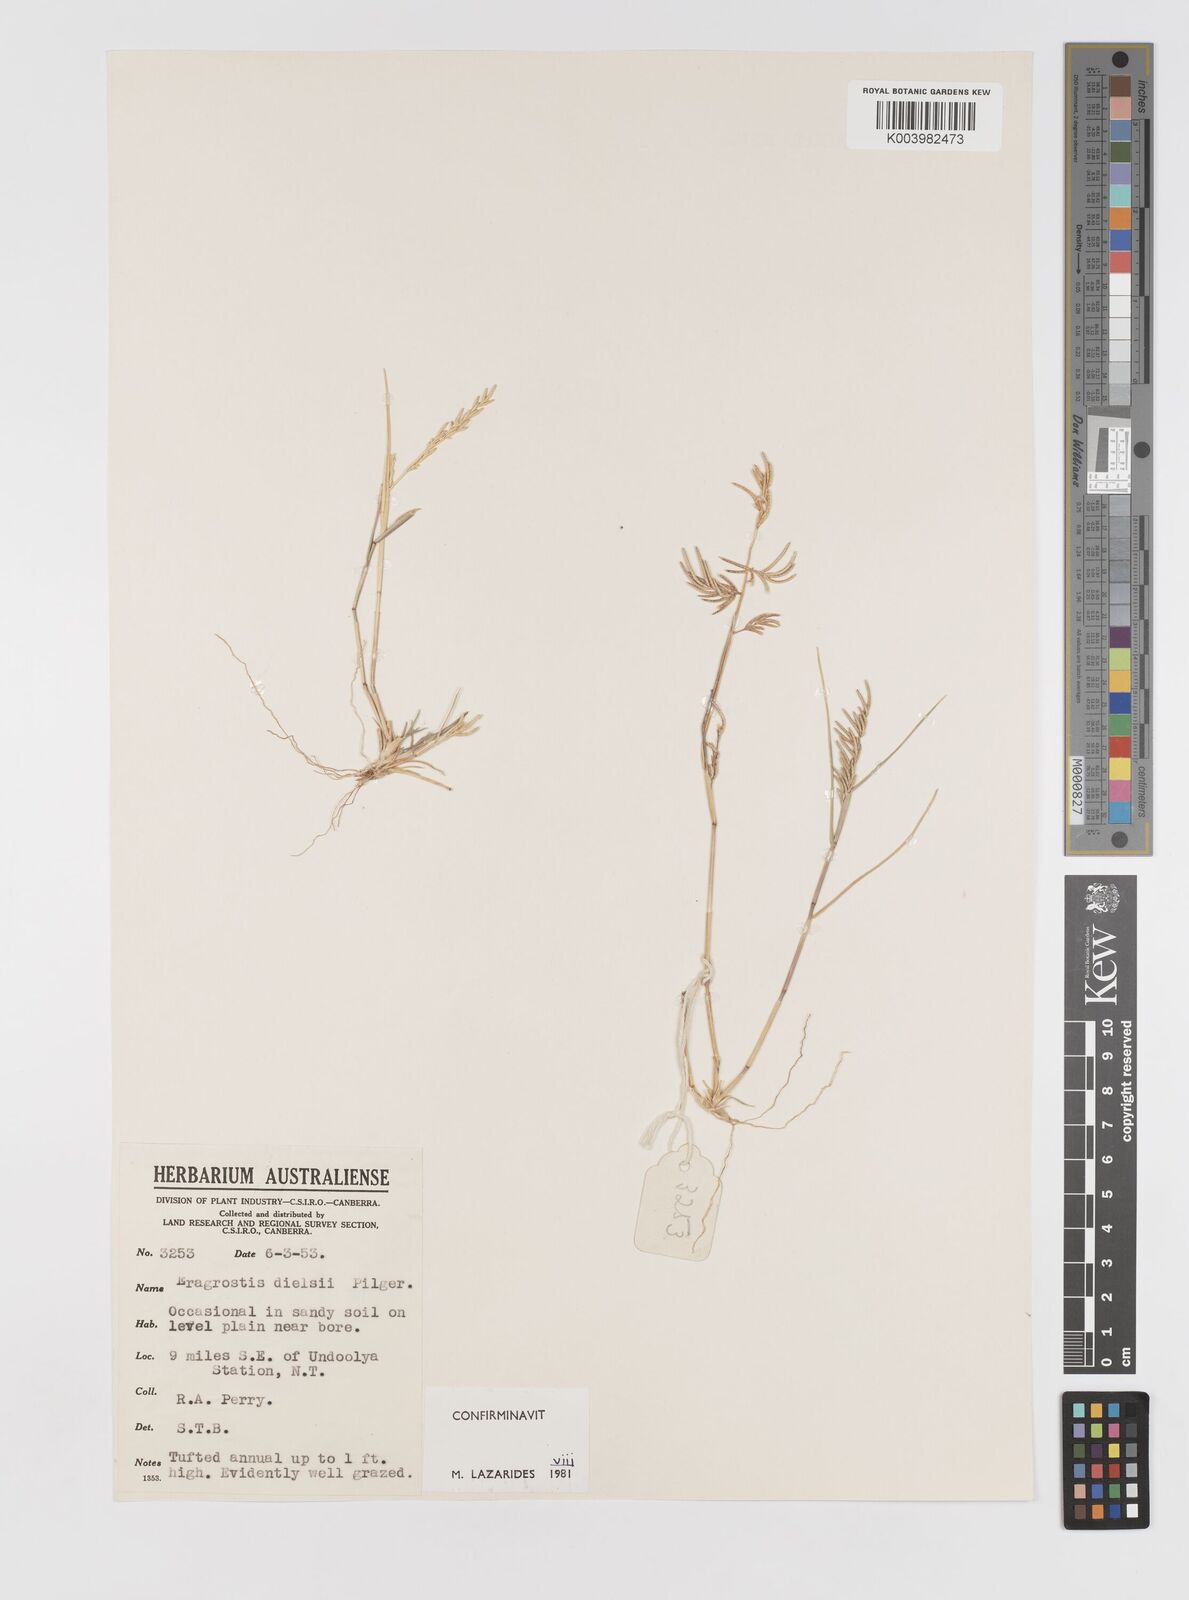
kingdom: Plantae
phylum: Tracheophyta
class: Liliopsida
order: Poales
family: Poaceae
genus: Eragrostis
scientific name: Eragrostis dielsii
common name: Lovegrass
